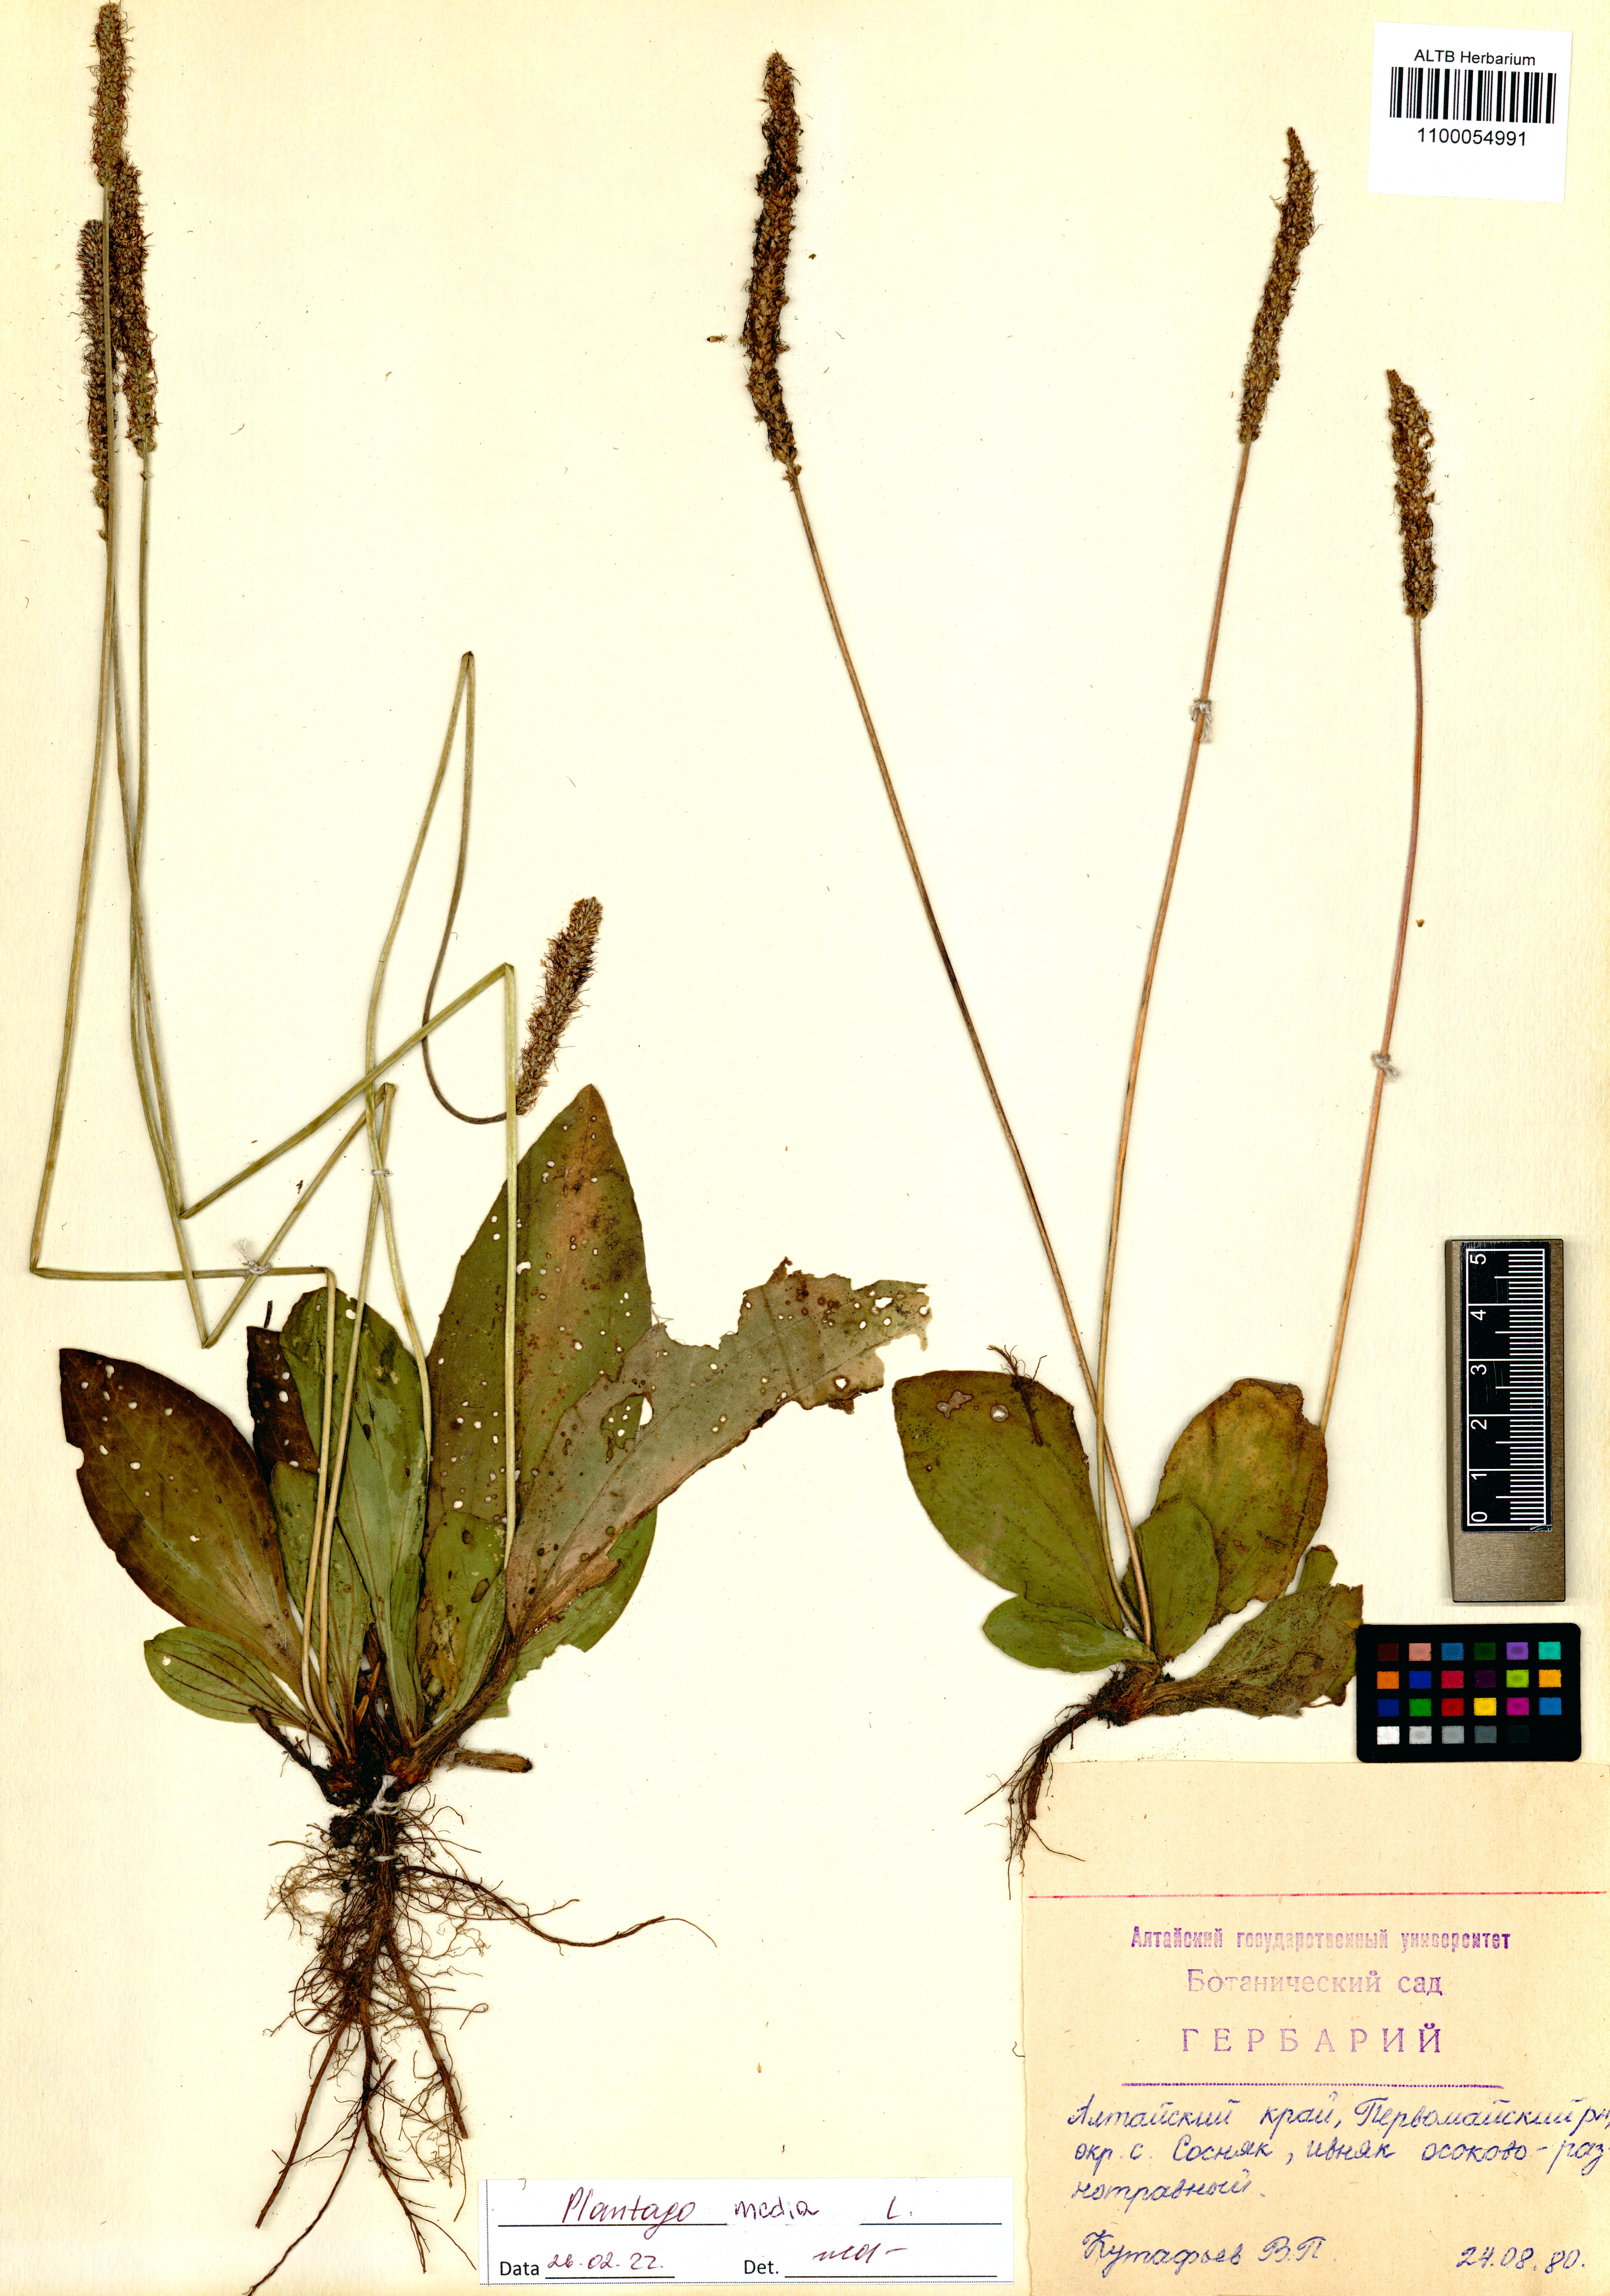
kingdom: Plantae
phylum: Tracheophyta
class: Magnoliopsida
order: Lamiales
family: Plantaginaceae
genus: Plantago
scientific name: Plantago media
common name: Hoary plantain
